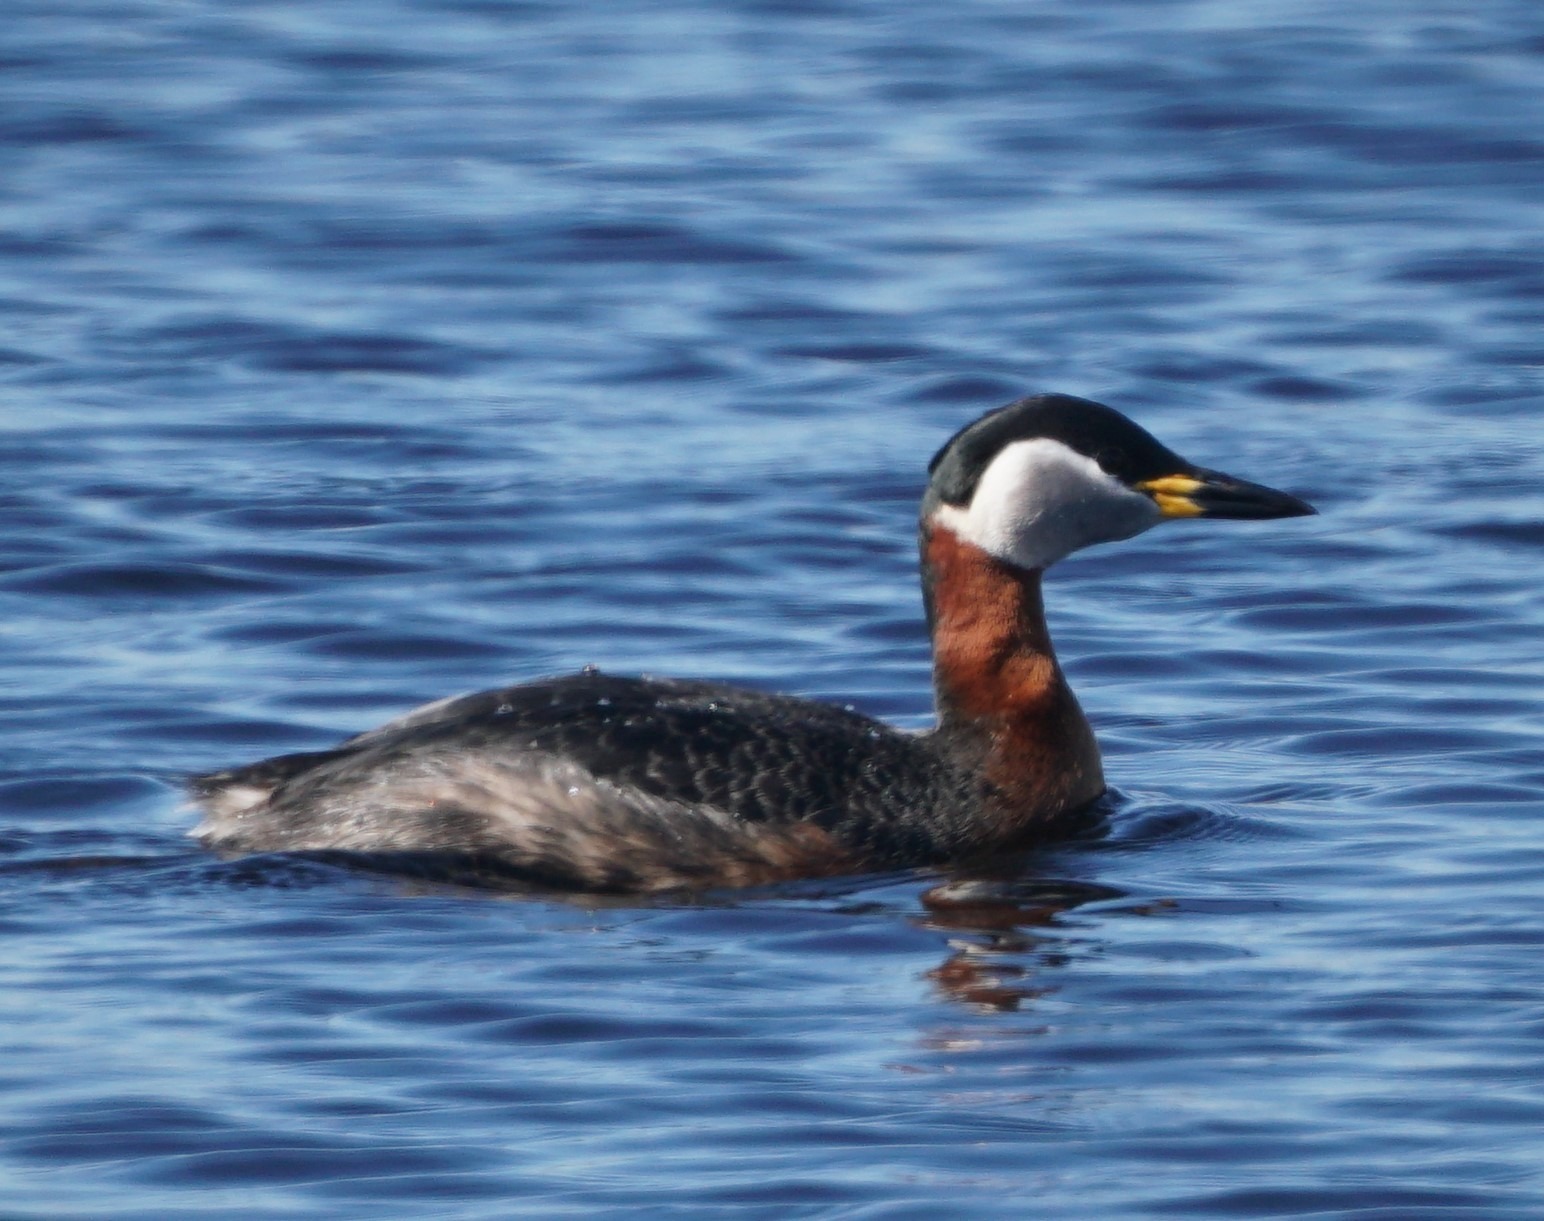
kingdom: Animalia
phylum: Chordata
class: Aves
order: Podicipediformes
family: Podicipedidae
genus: Podiceps
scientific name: Podiceps grisegena
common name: Gråstrubet lappedykker
